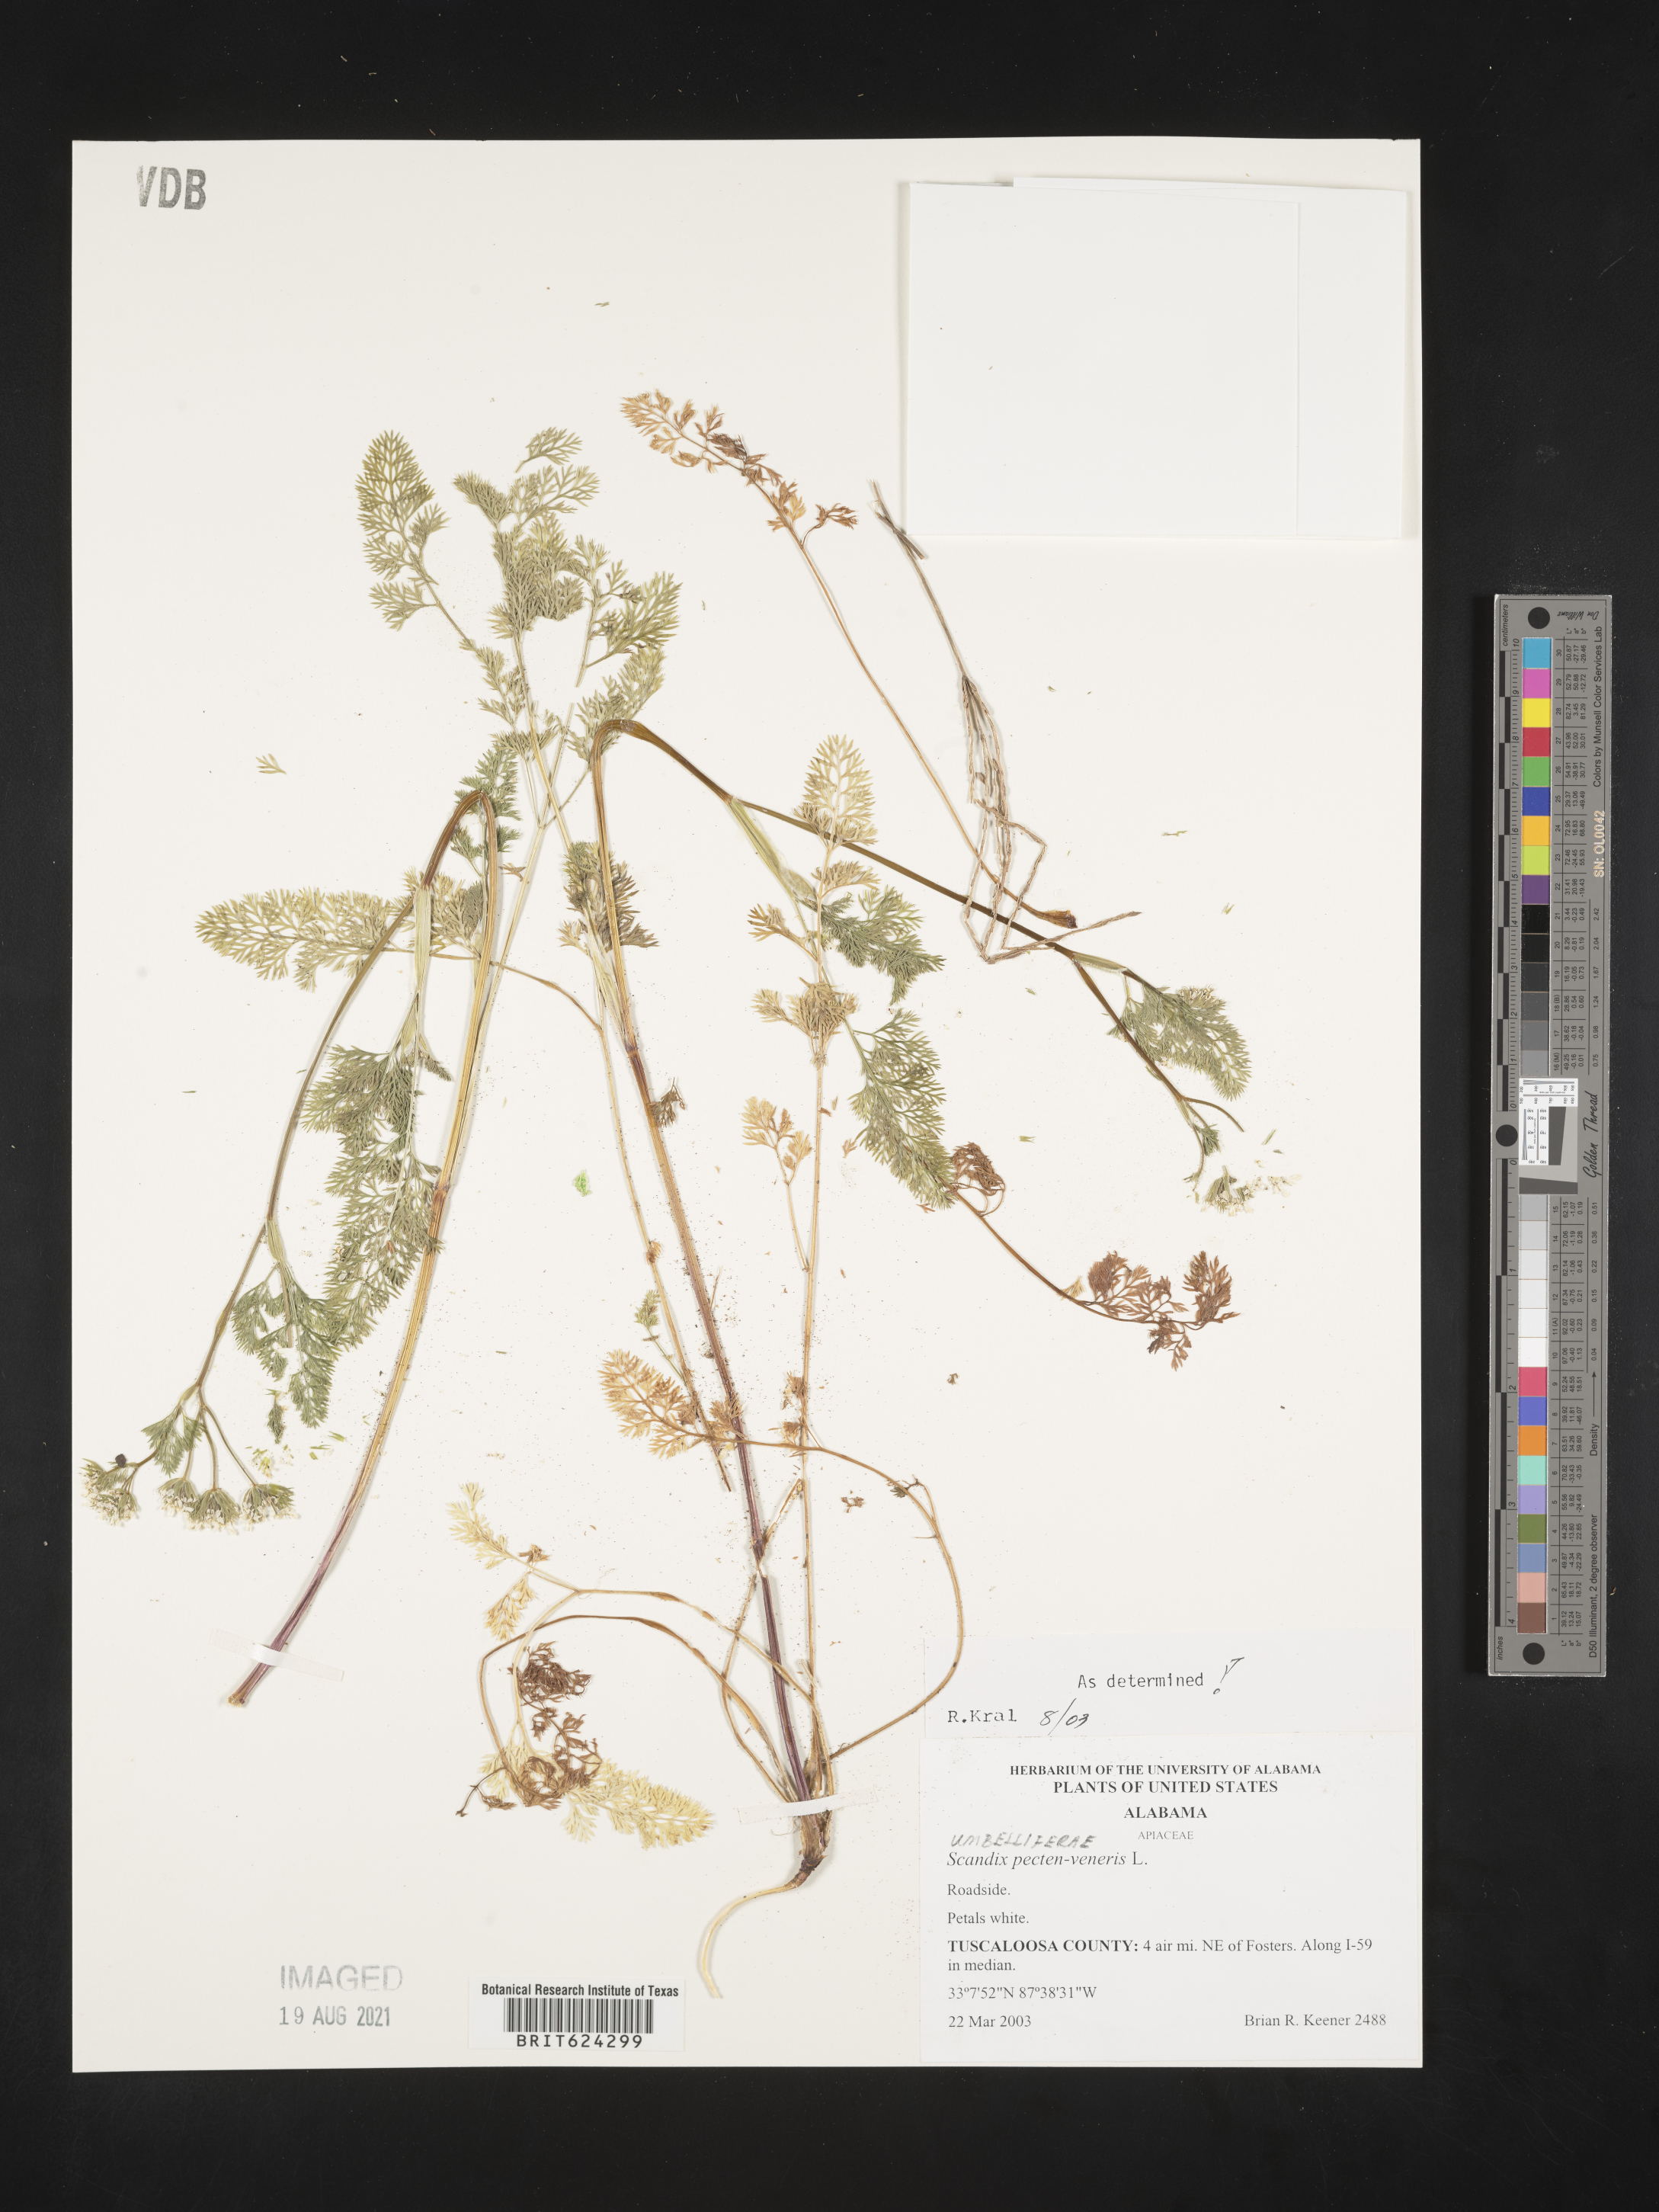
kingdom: Plantae
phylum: Tracheophyta
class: Magnoliopsida
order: Apiales
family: Apiaceae
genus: Scandix
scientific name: Scandix
